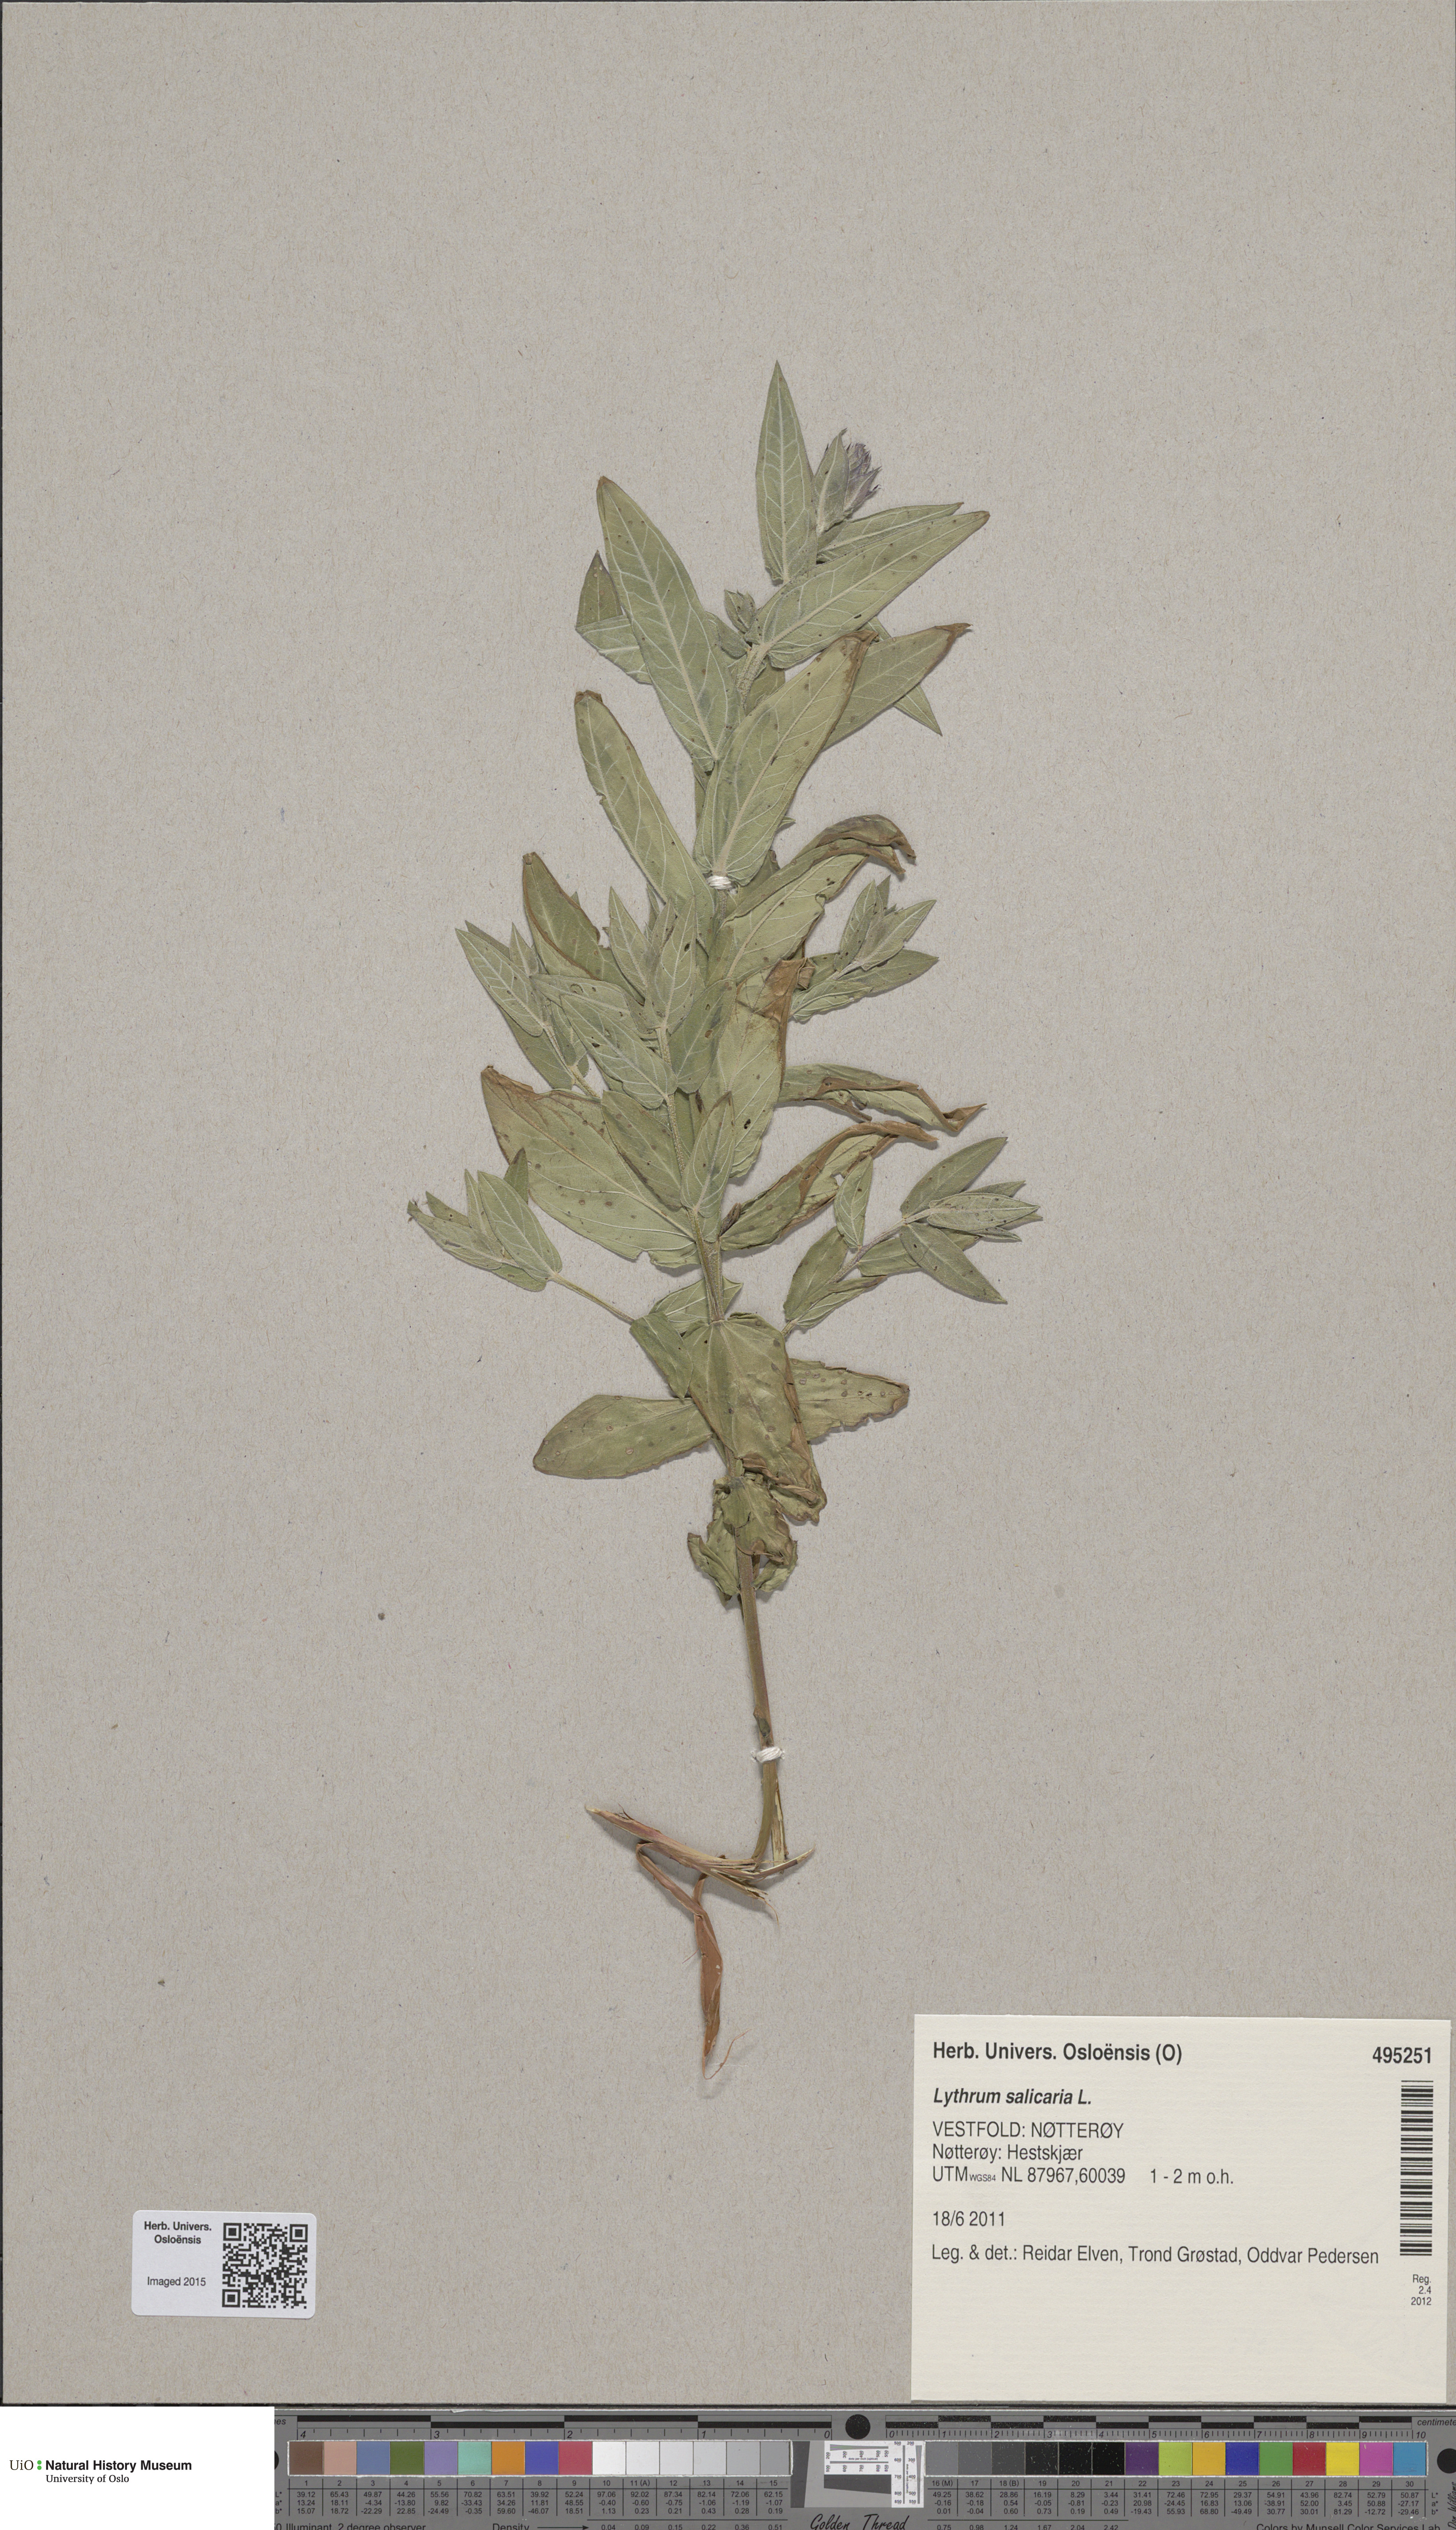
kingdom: Plantae
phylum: Tracheophyta
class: Magnoliopsida
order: Myrtales
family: Lythraceae
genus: Lythrum
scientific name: Lythrum salicaria
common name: Purple loosestrife
